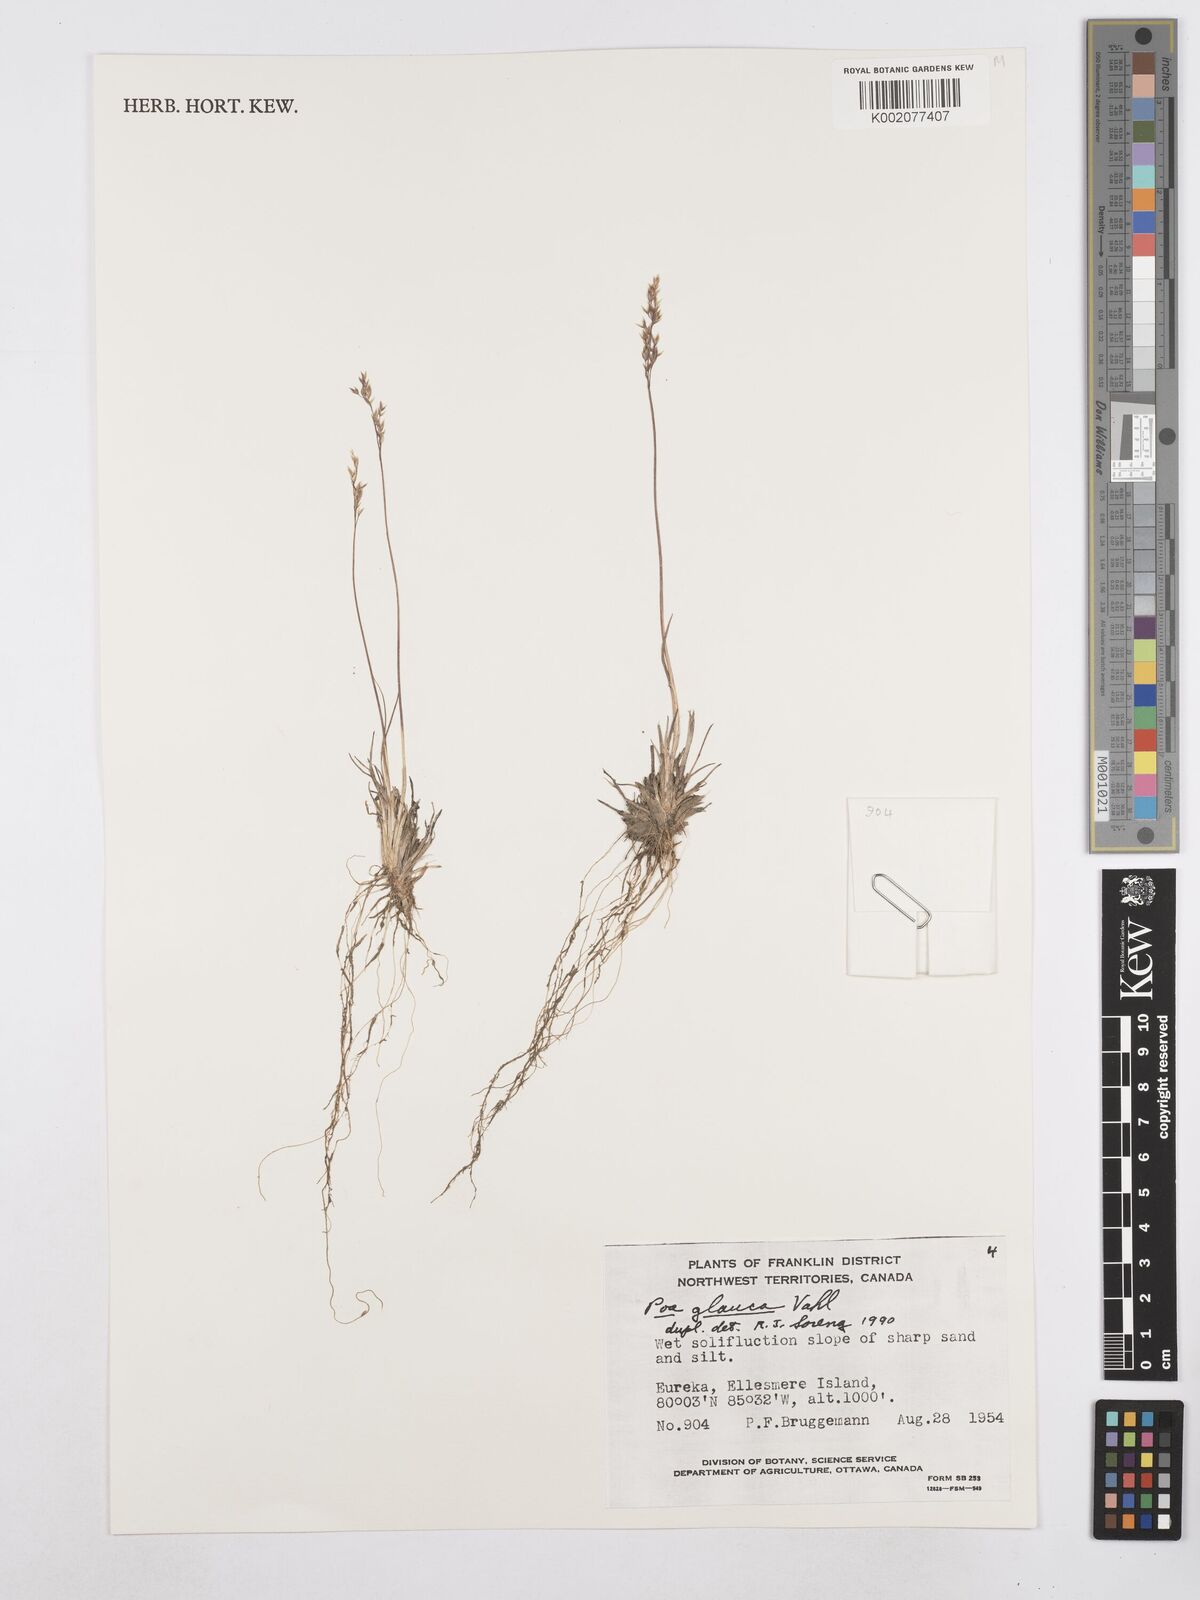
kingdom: Plantae
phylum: Tracheophyta
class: Liliopsida
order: Poales
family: Poaceae
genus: Poa
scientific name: Poa glauca
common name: Glaucous bluegrass
